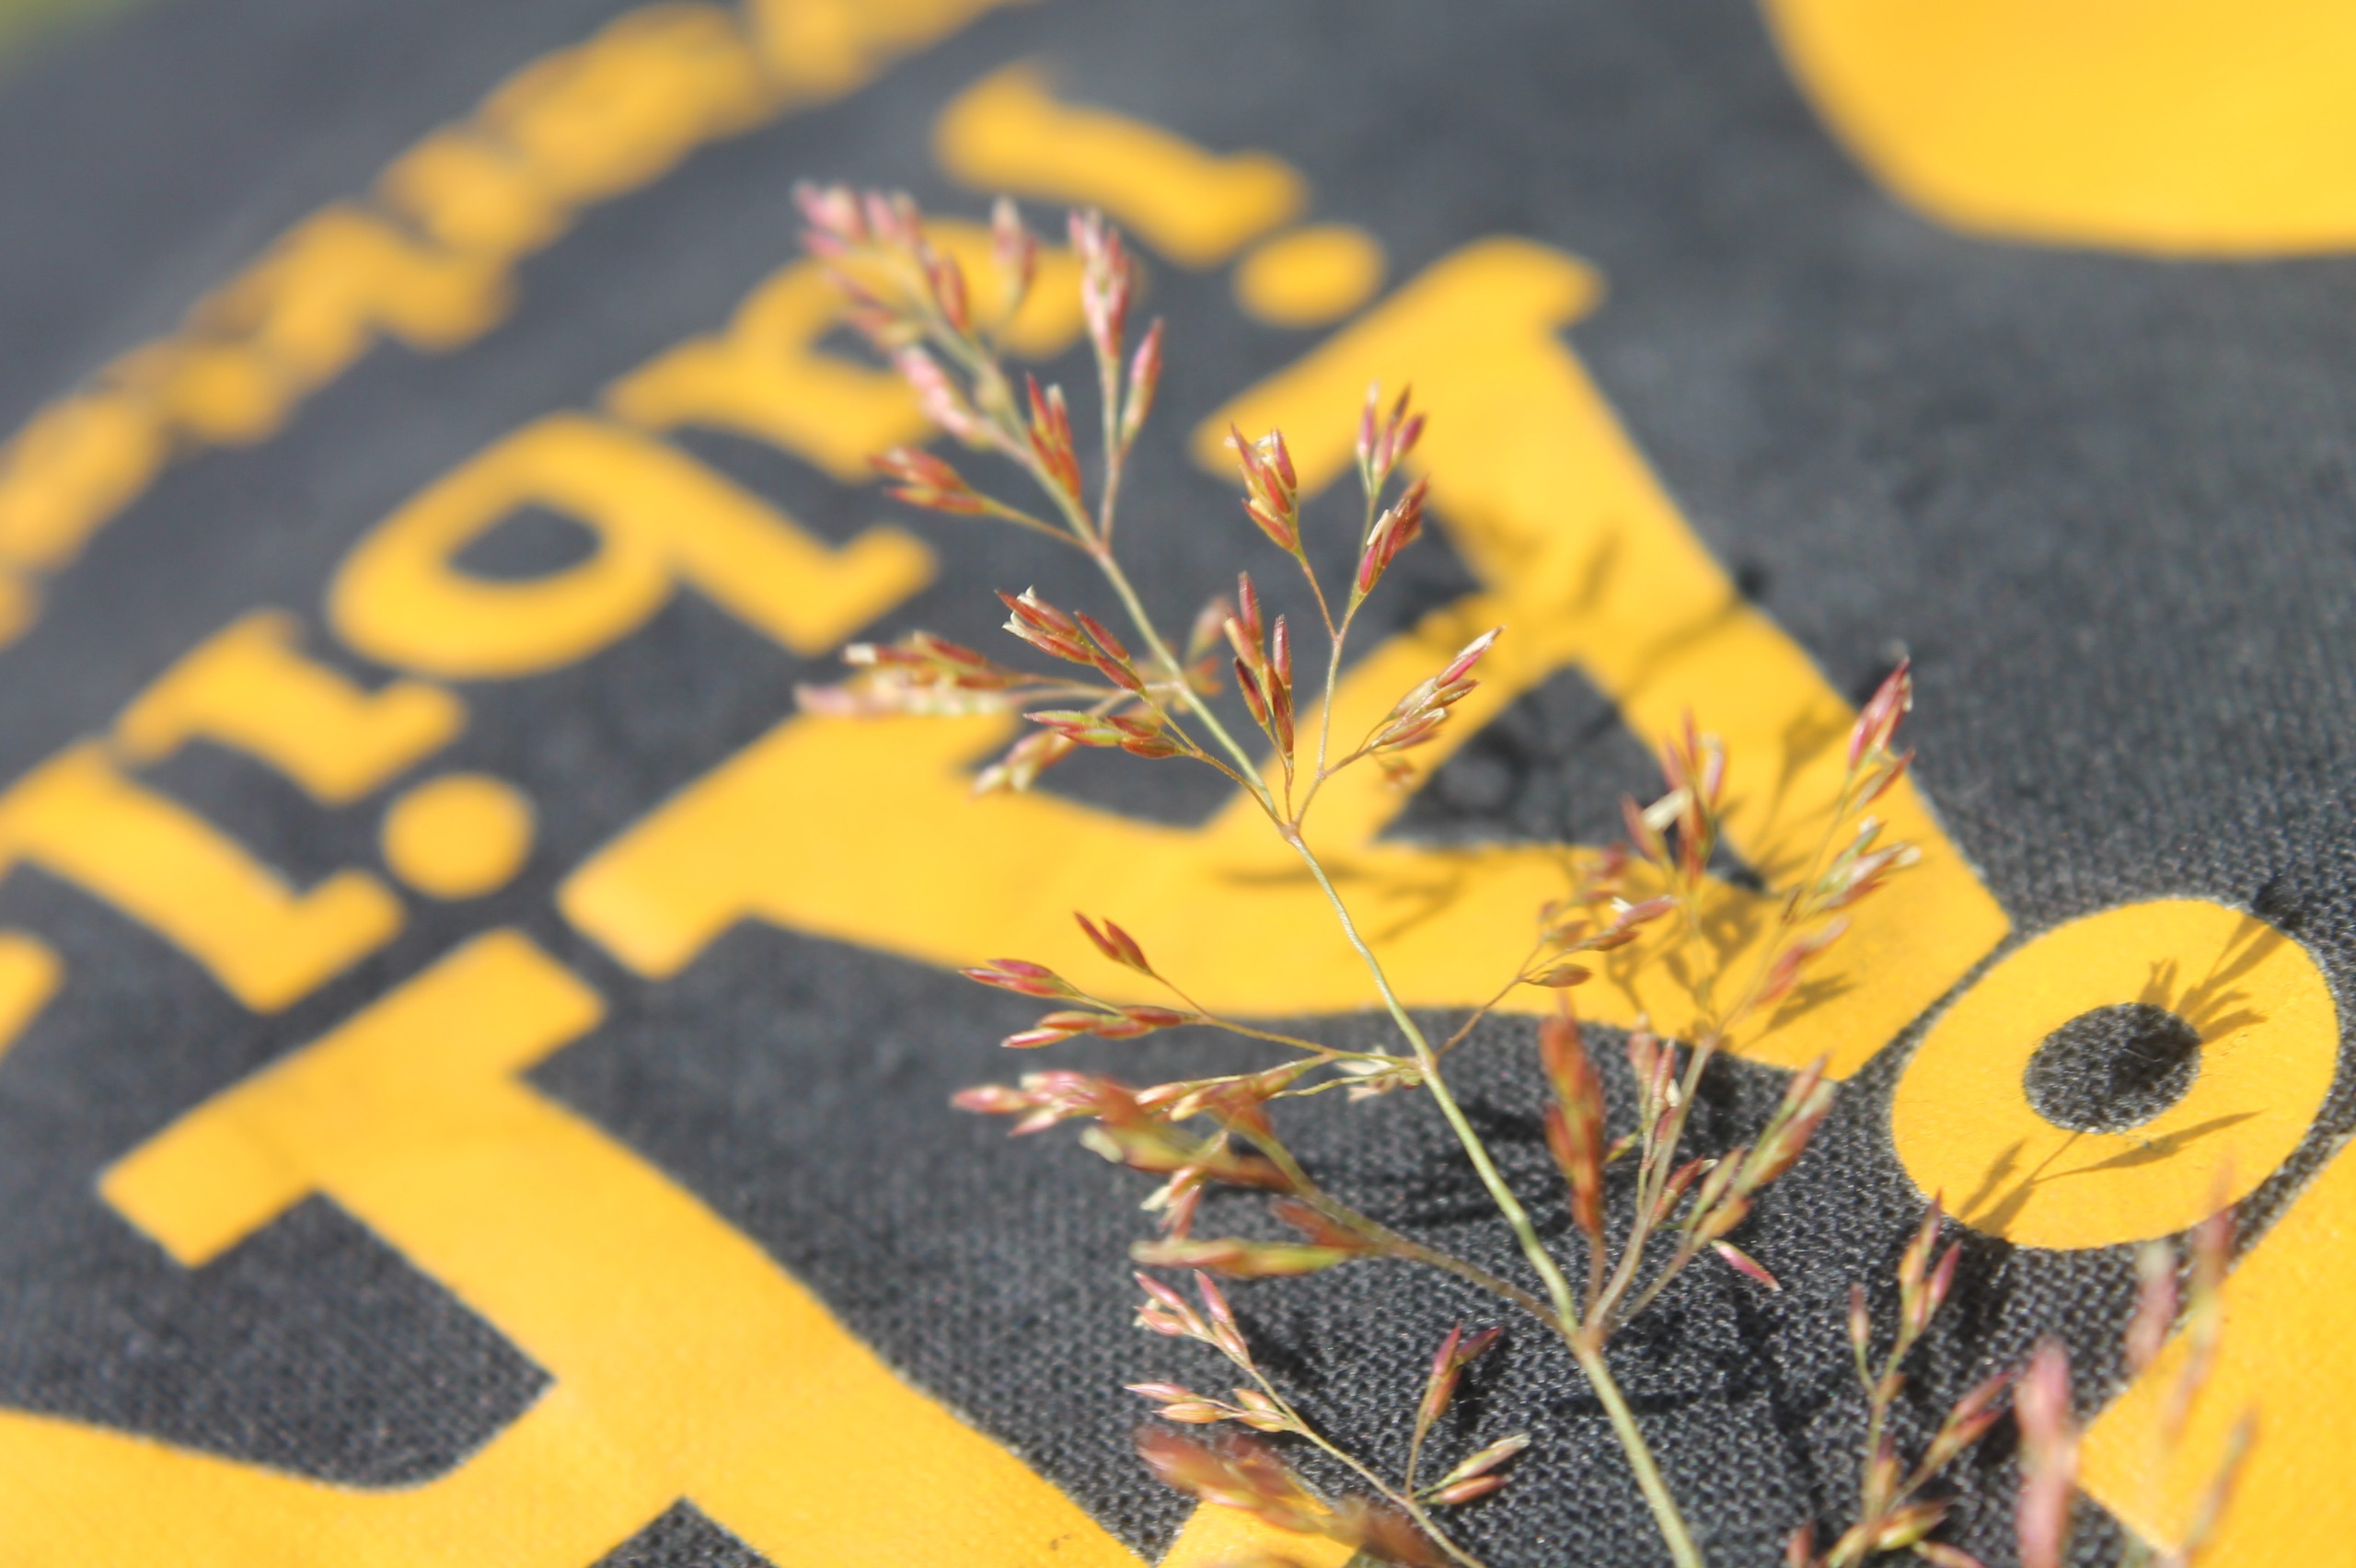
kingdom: Plantae
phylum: Tracheophyta
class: Liliopsida
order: Poales
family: Poaceae
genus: Agrostis
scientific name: Agrostis stolonifera
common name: Kryb-hvene
